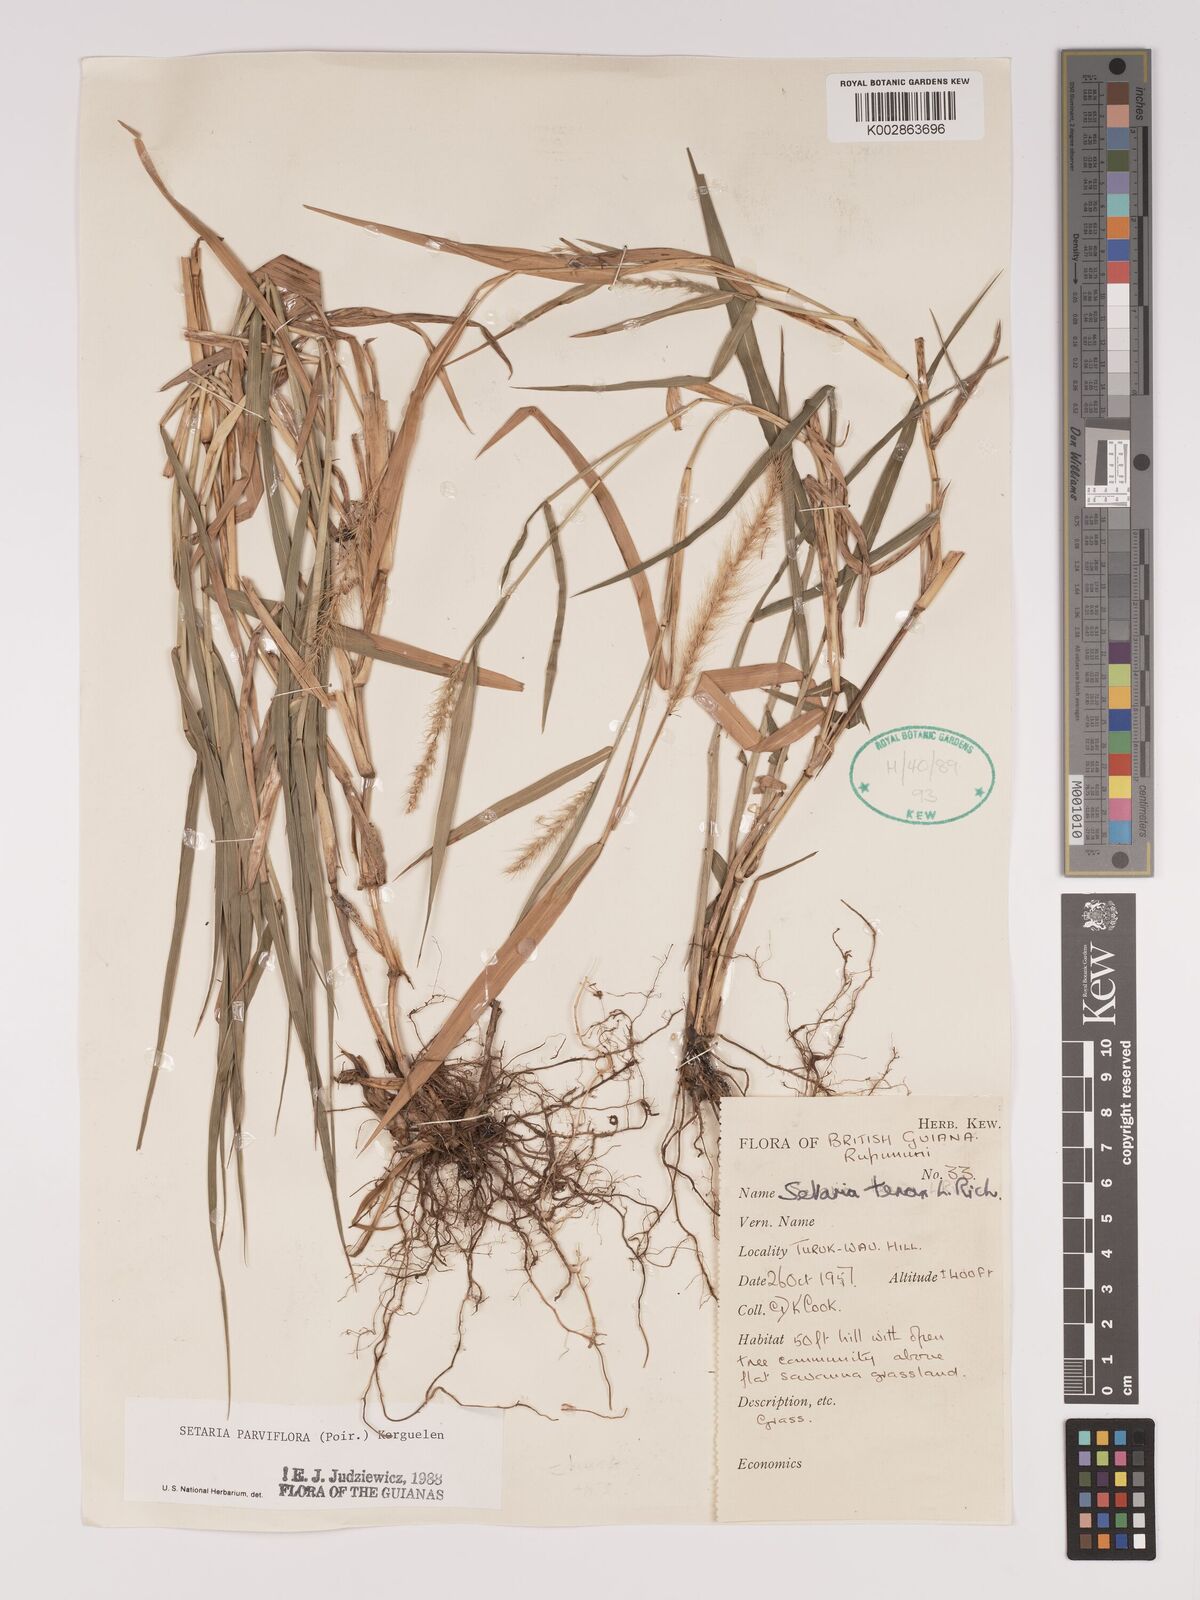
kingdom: Plantae
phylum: Tracheophyta
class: Liliopsida
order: Poales
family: Poaceae
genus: Setaria
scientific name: Setaria parviflora
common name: Knotroot bristle-grass
